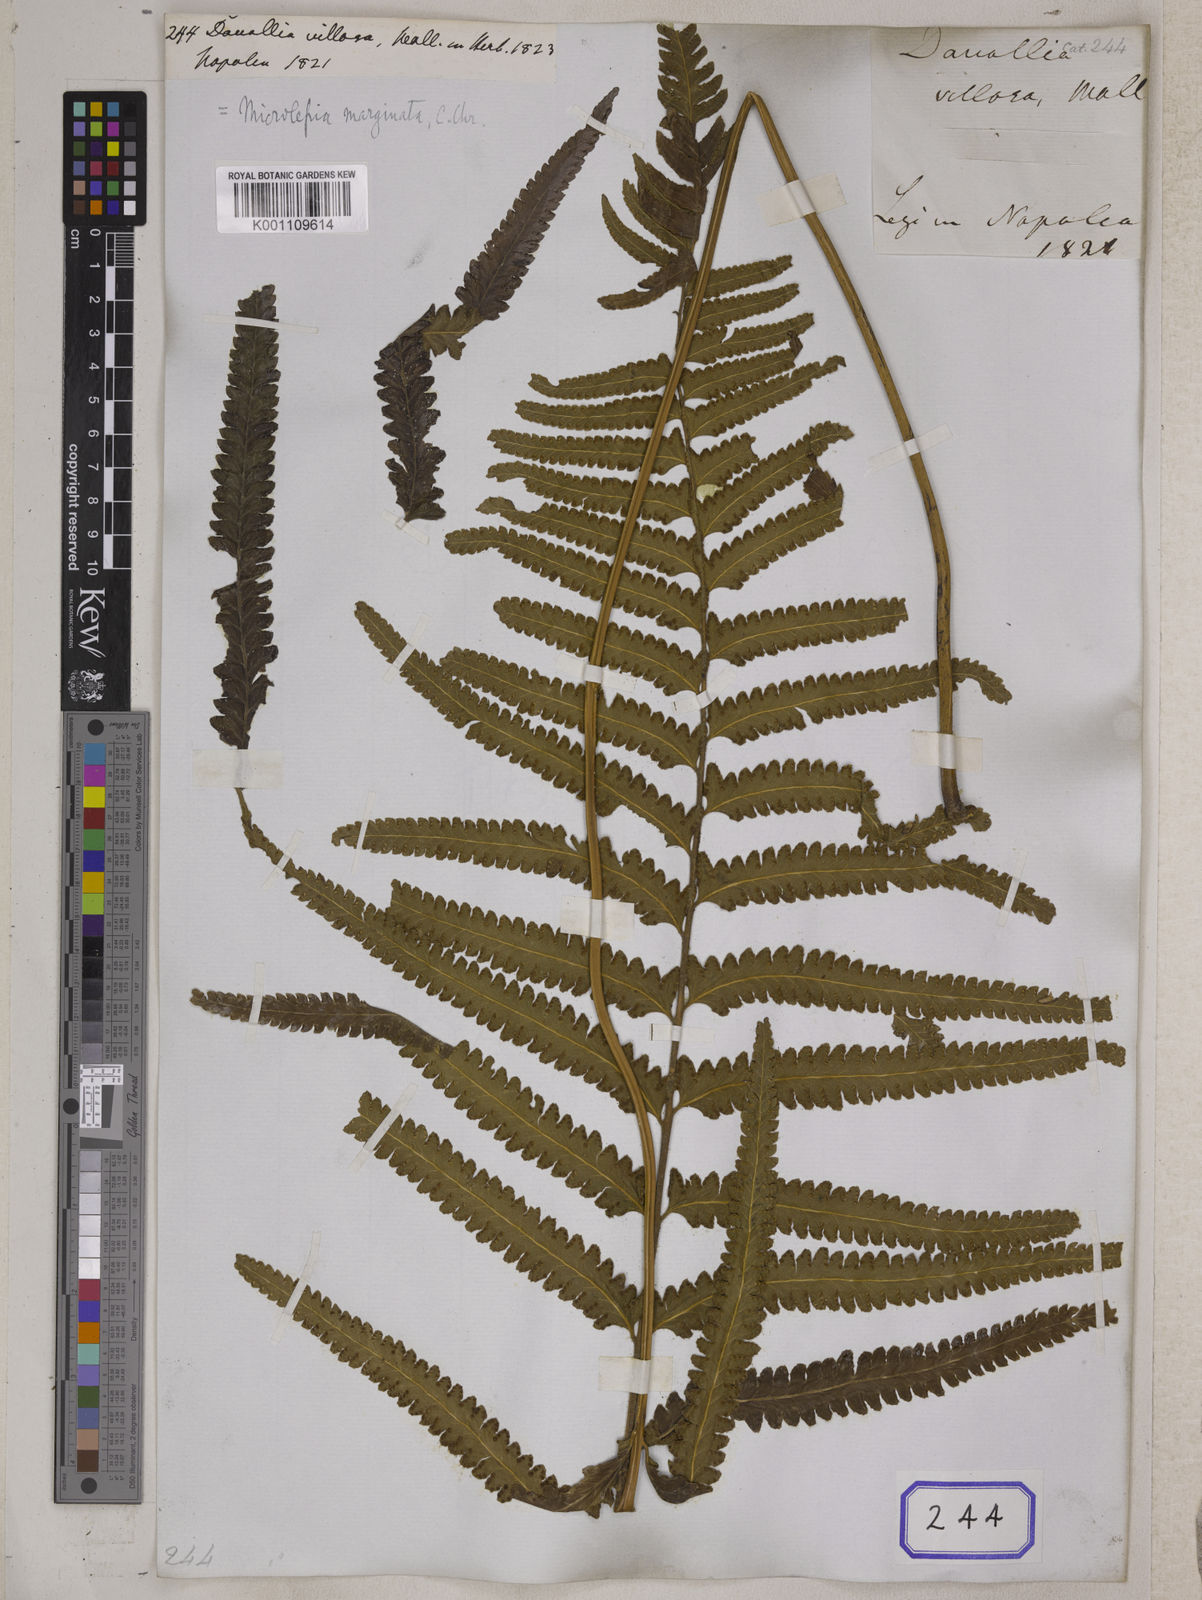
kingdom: Plantae
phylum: Tracheophyta
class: Polypodiopsida
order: Polypodiales
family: Dennstaedtiaceae
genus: Microlepia
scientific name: Microlepia marginata
